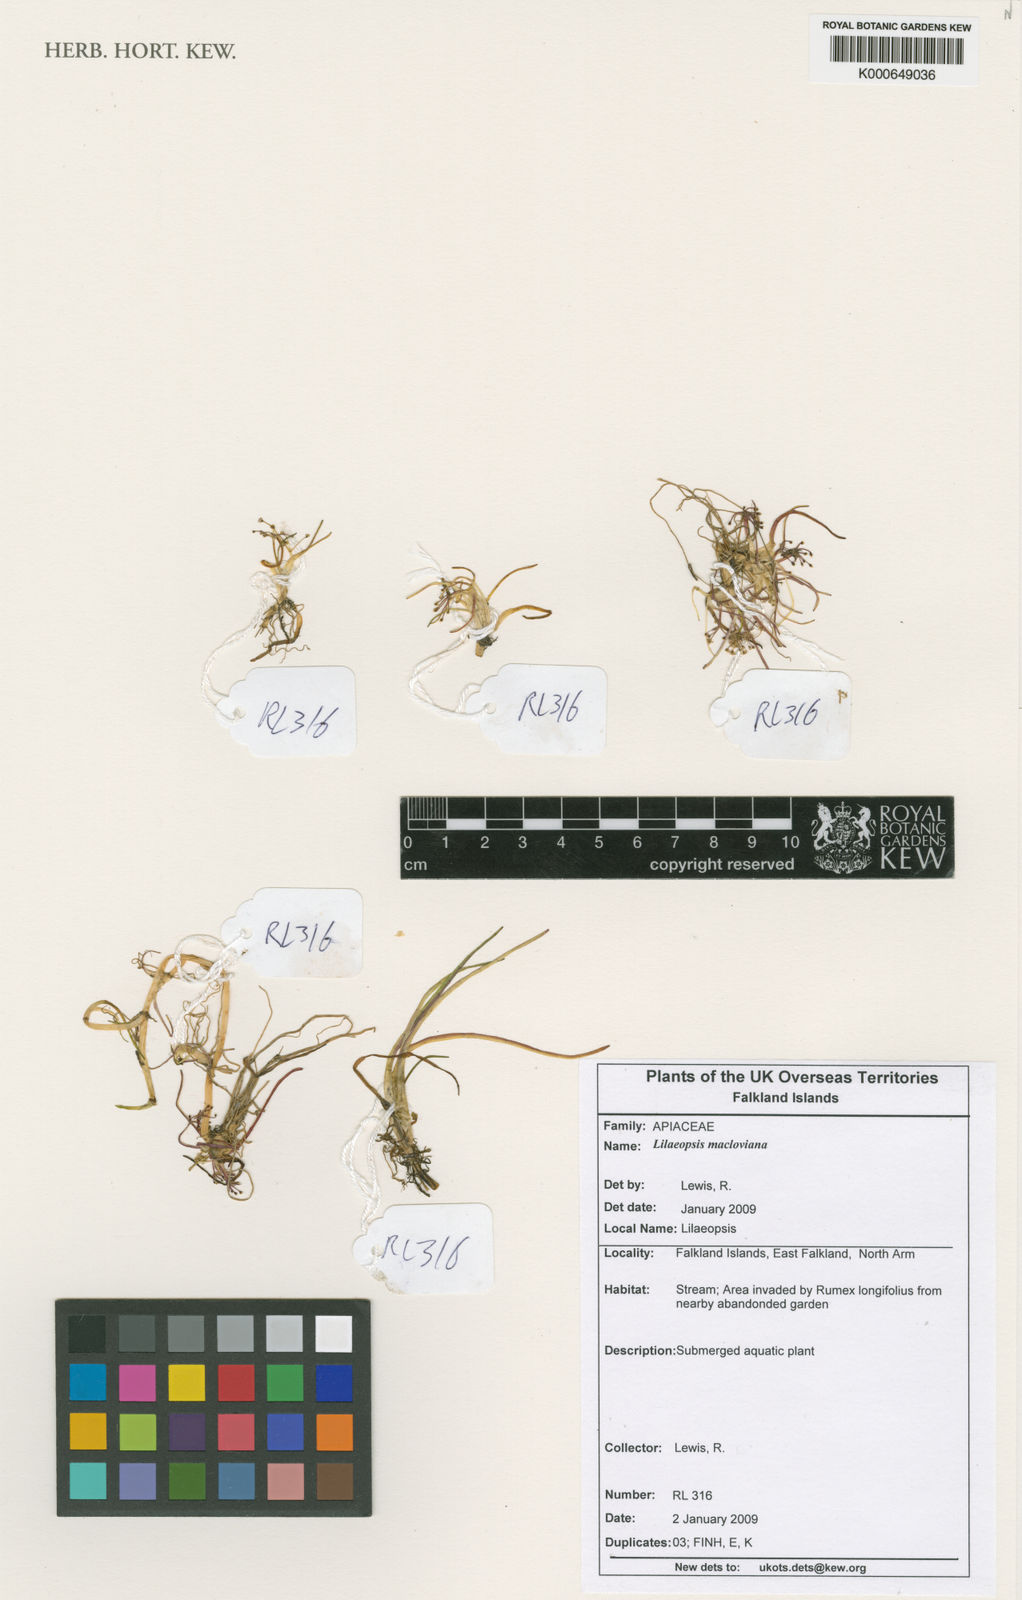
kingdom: Plantae
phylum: Tracheophyta
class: Magnoliopsida
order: Apiales
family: Apiaceae
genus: Lilaeopsis
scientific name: Lilaeopsis macloviana
